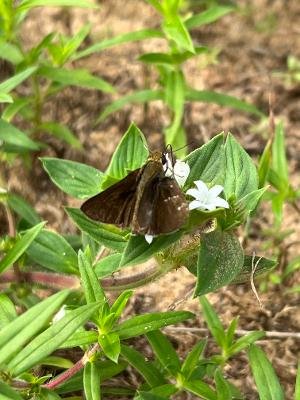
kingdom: Animalia
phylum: Arthropoda
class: Insecta
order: Lepidoptera
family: Hesperiidae
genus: Euphyes
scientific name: Euphyes vestris
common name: Dun Skipper
